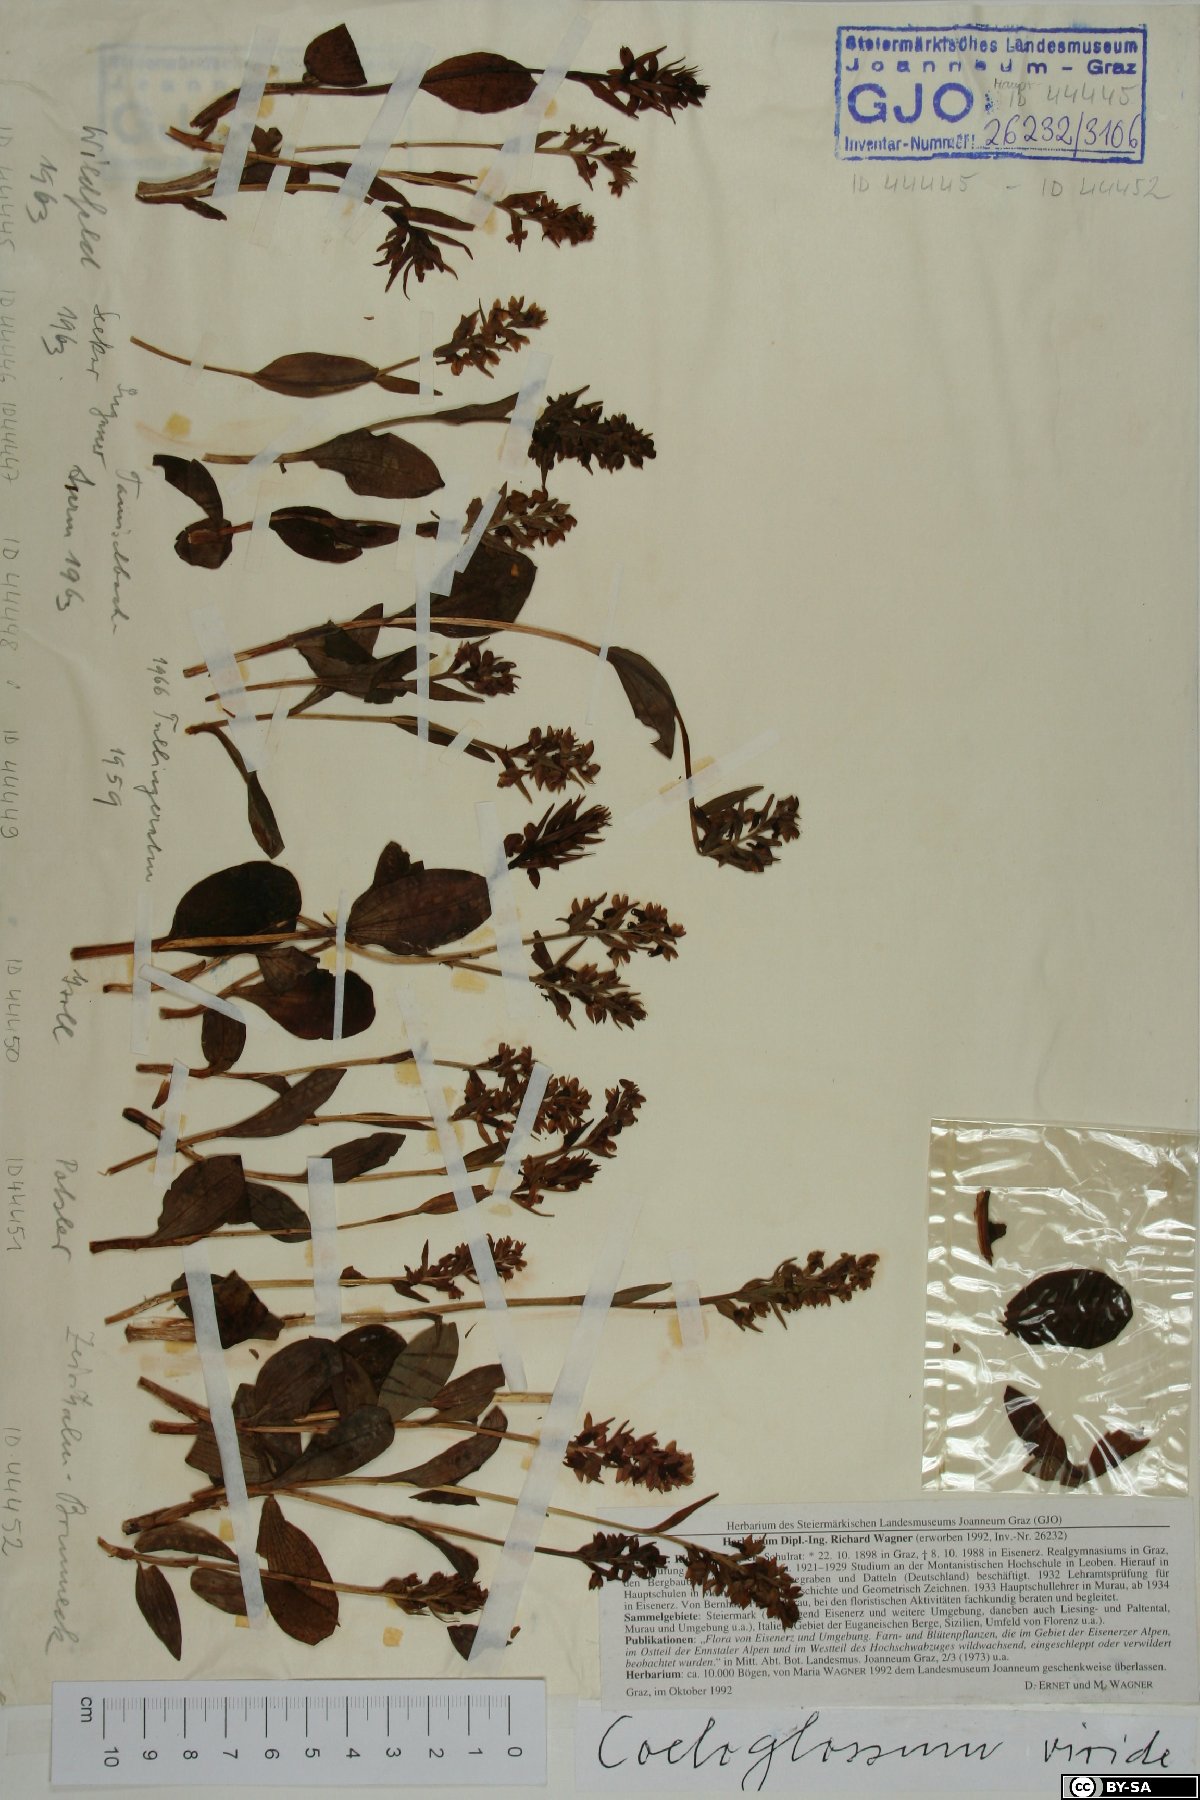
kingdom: Plantae
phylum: Tracheophyta
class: Liliopsida
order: Asparagales
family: Orchidaceae
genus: Dactylorhiza
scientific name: Dactylorhiza viridis
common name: Longbract frog orchid
